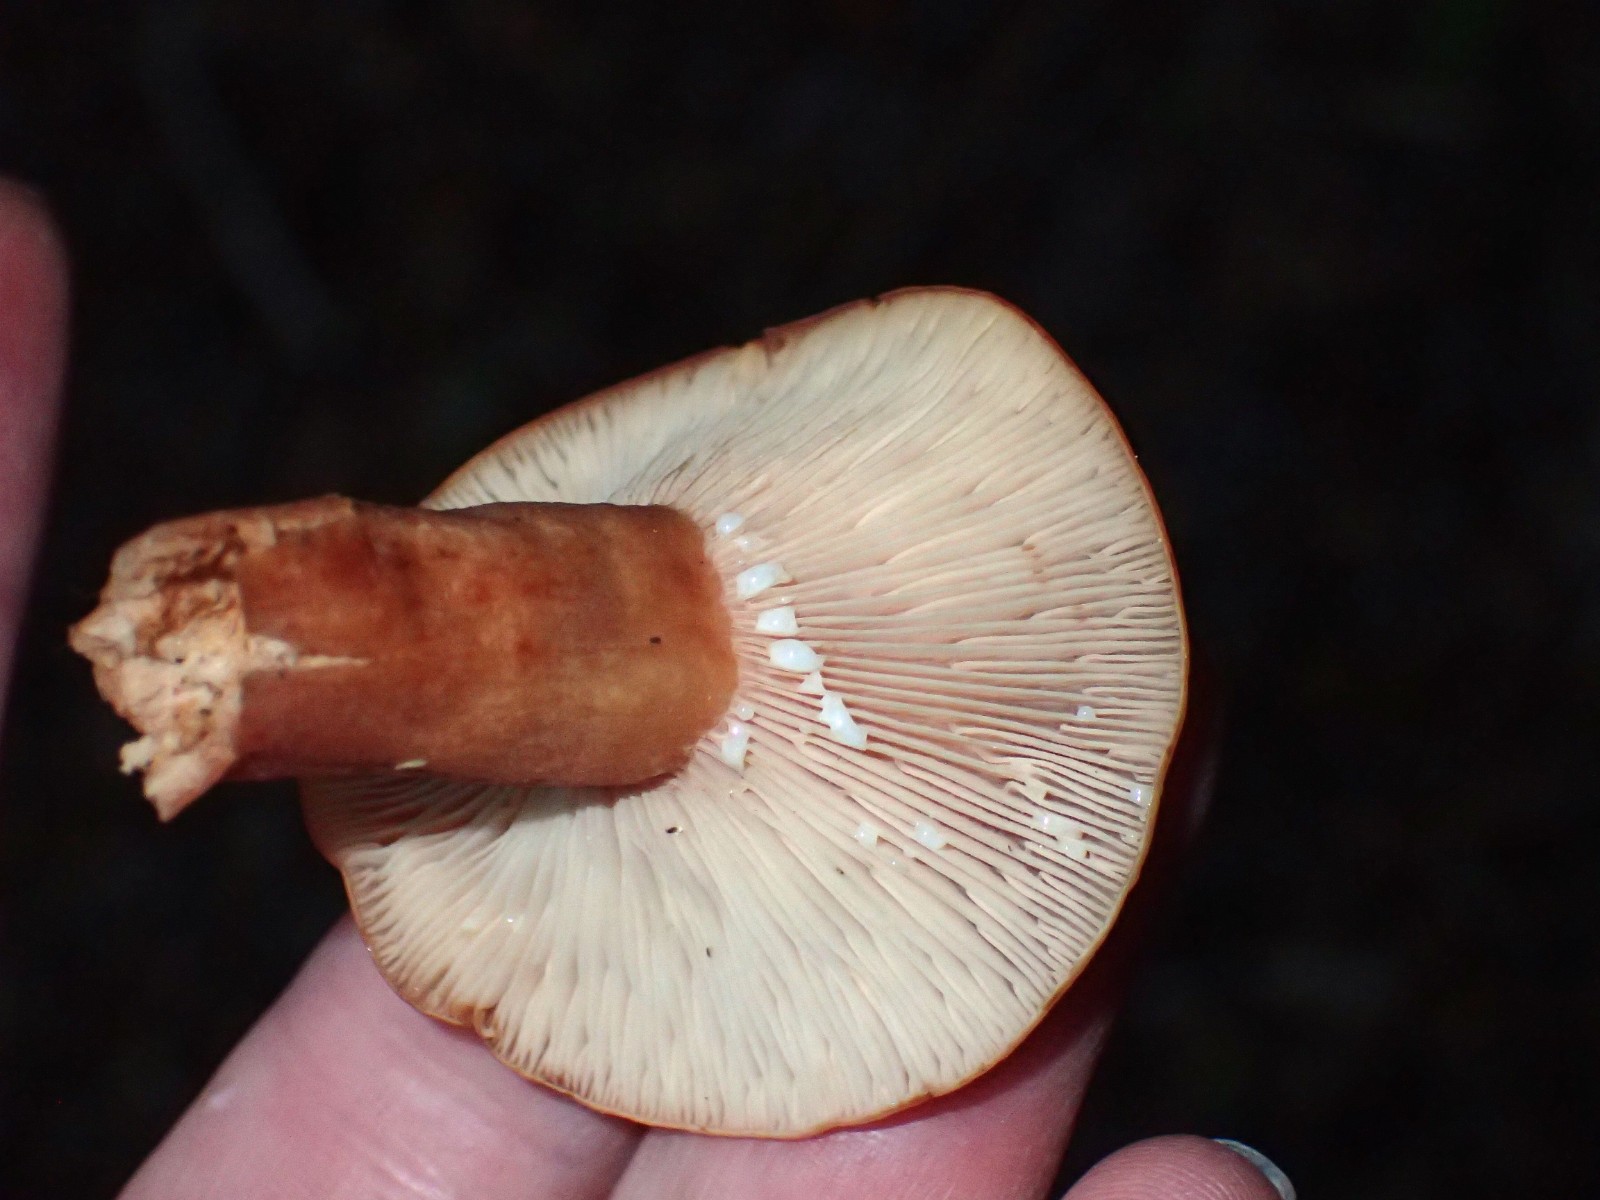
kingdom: Fungi
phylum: Basidiomycota
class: Agaricomycetes
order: Russulales
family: Russulaceae
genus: Lactarius
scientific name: Lactarius rubrocinctus
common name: halsbånd-mælkehat
